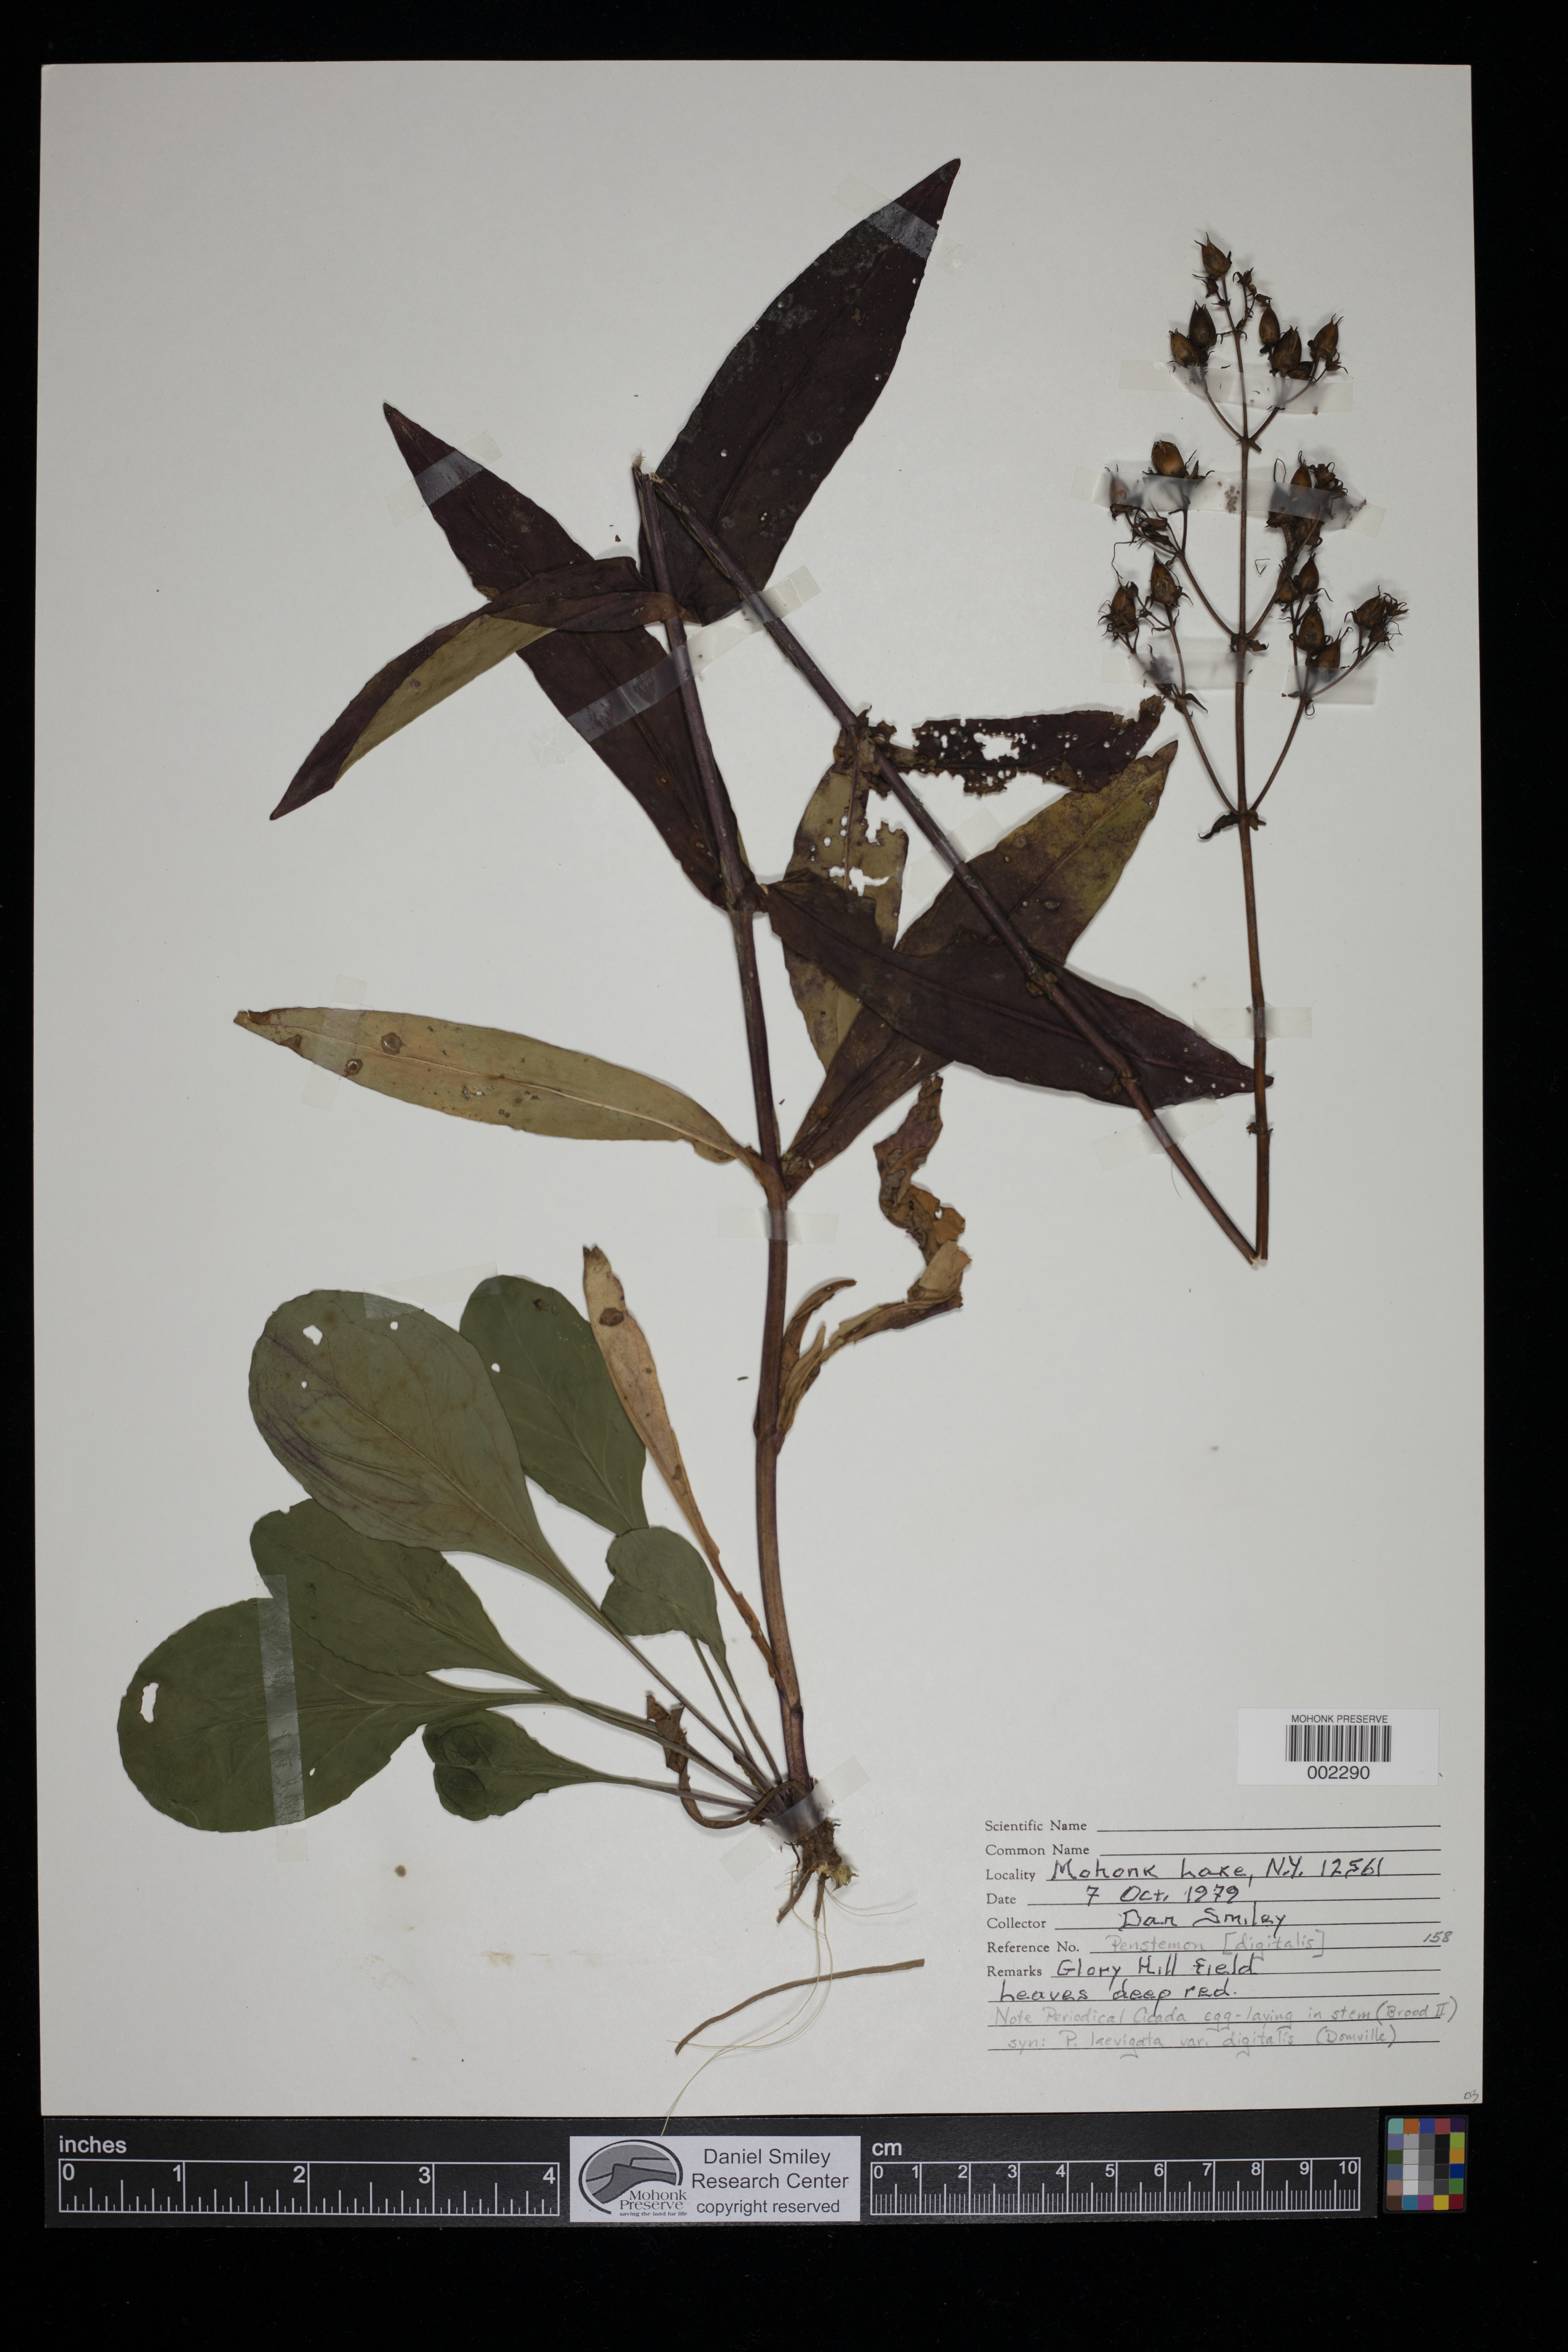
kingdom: Plantae
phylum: Tracheophyta
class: Magnoliopsida
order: Lamiales
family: Plantaginaceae
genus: Penstemon
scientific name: Penstemon digitalis
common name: Foxglove beardtongue
